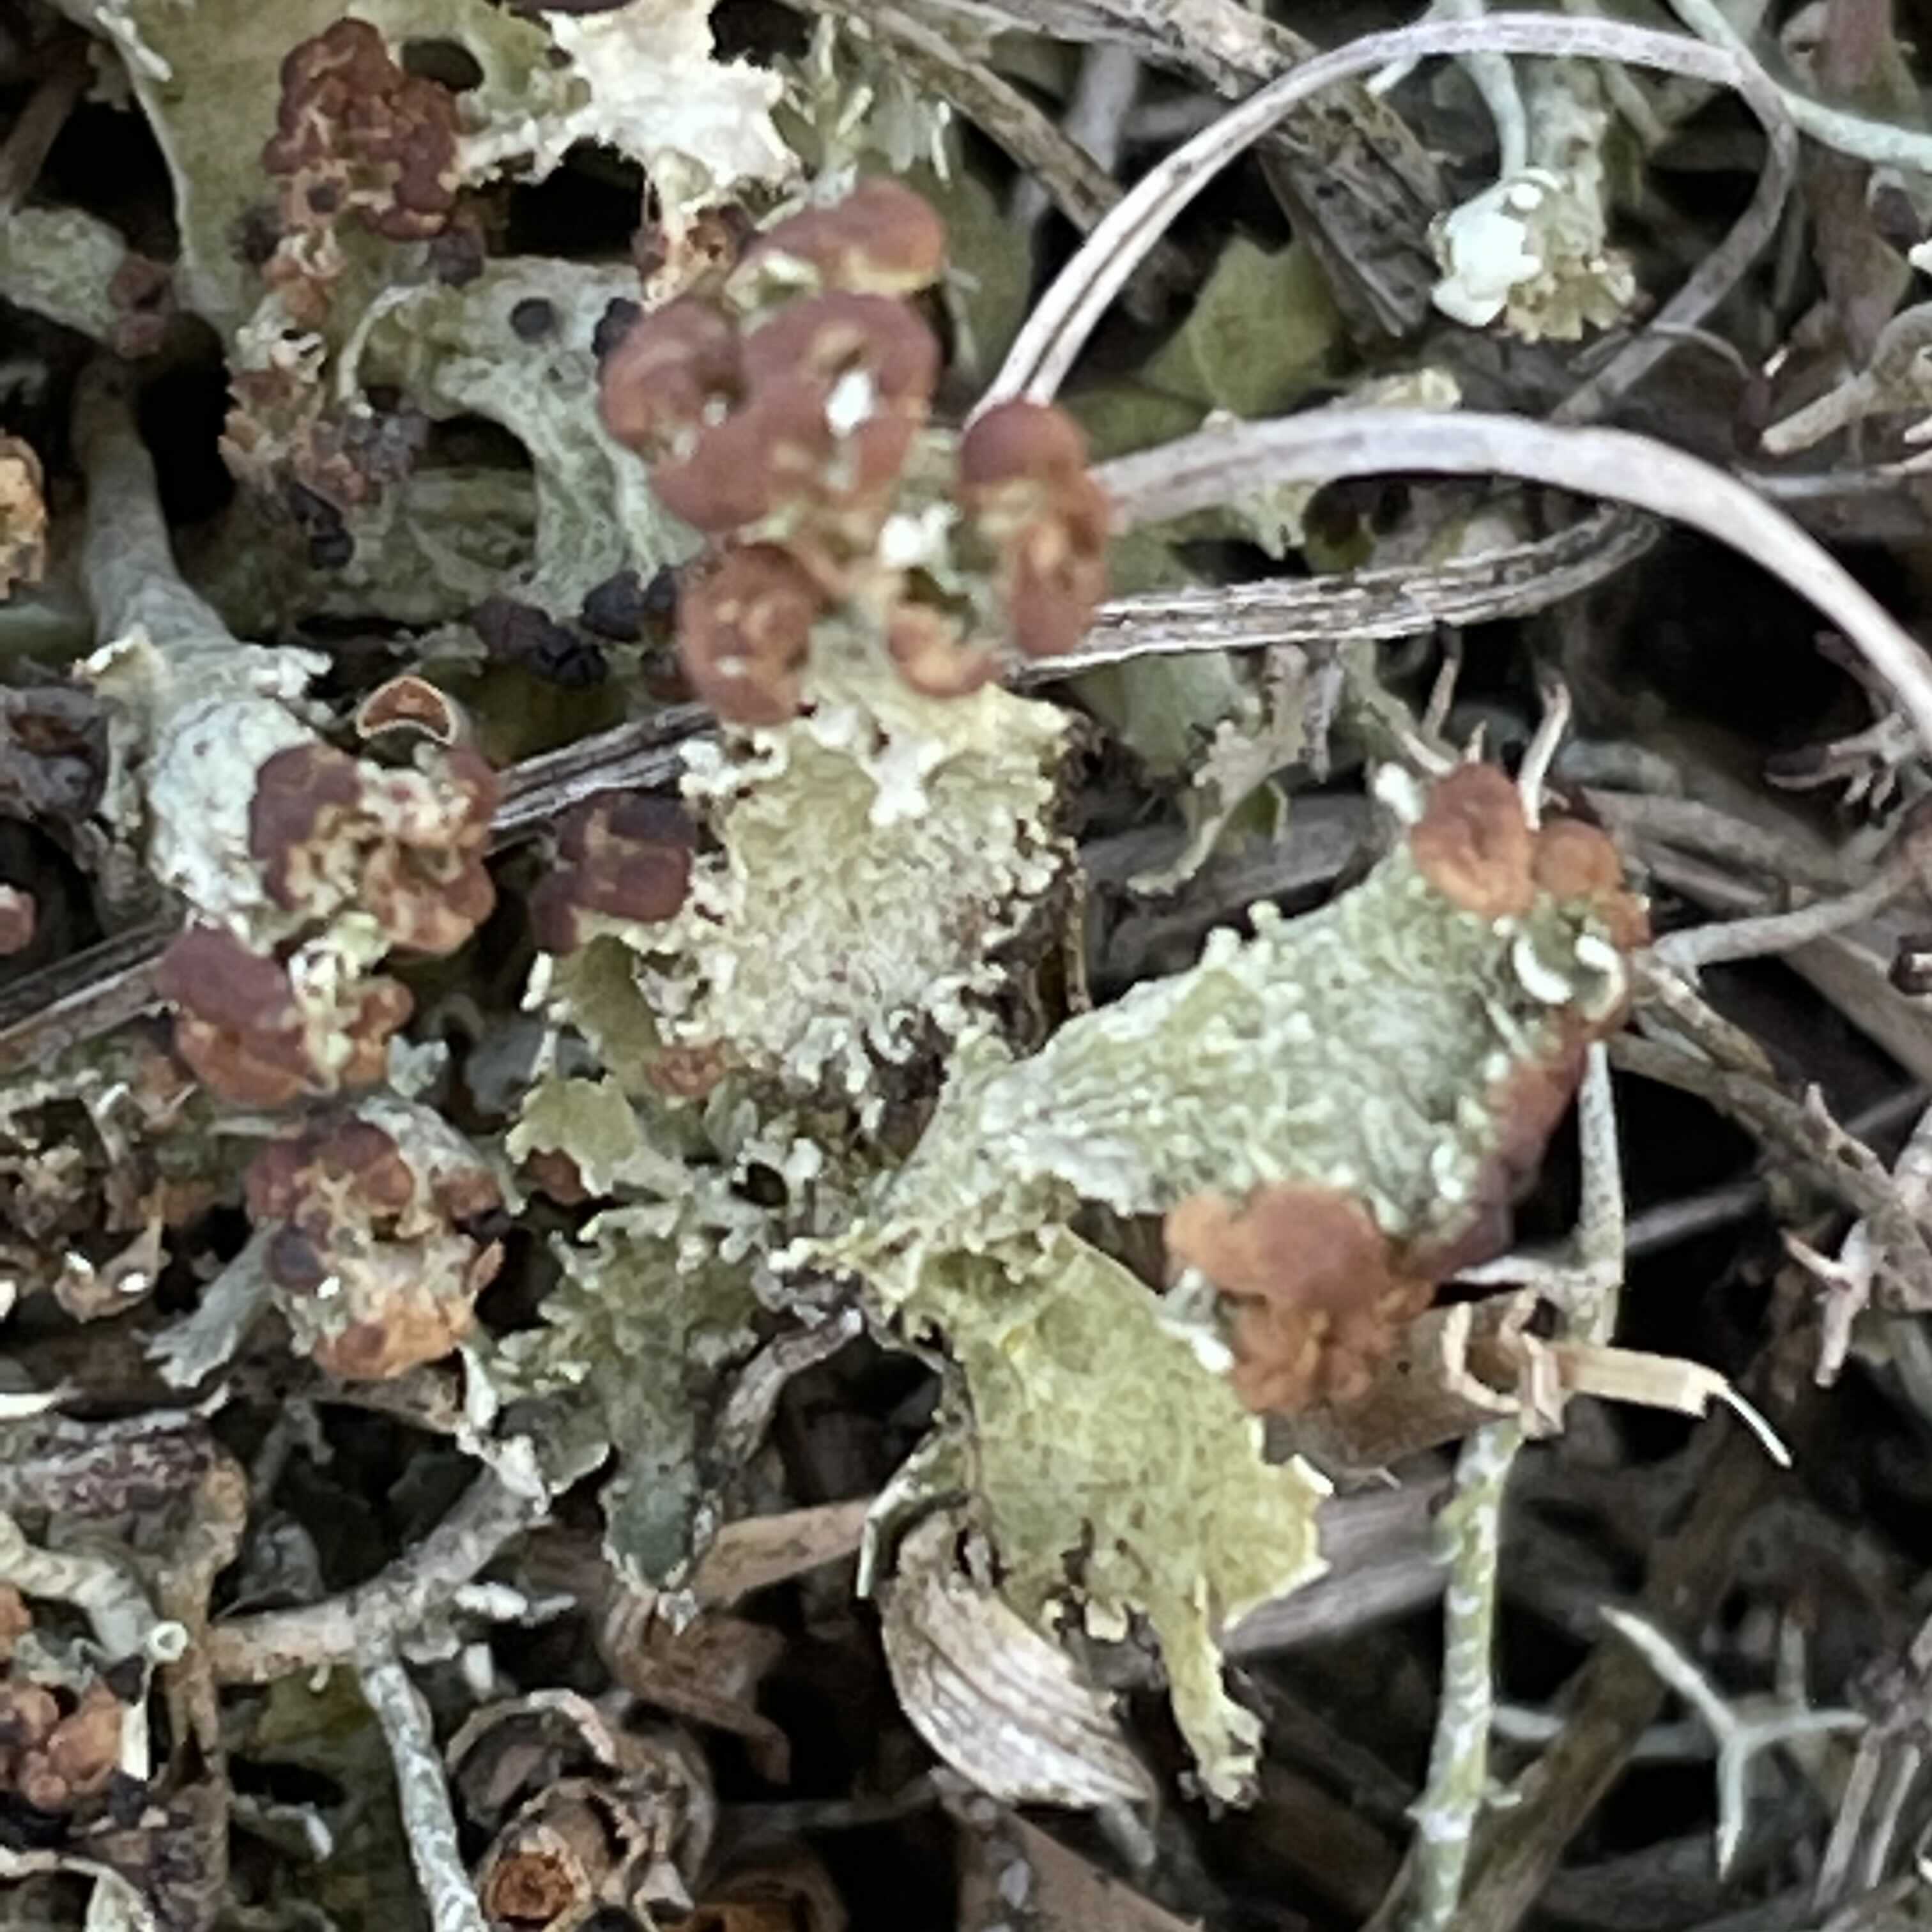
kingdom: Fungi
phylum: Ascomycota
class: Lecanoromycetes
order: Lecanorales
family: Cladoniaceae
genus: Cladonia
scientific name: Cladonia foliacea
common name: fliget bægerlav
